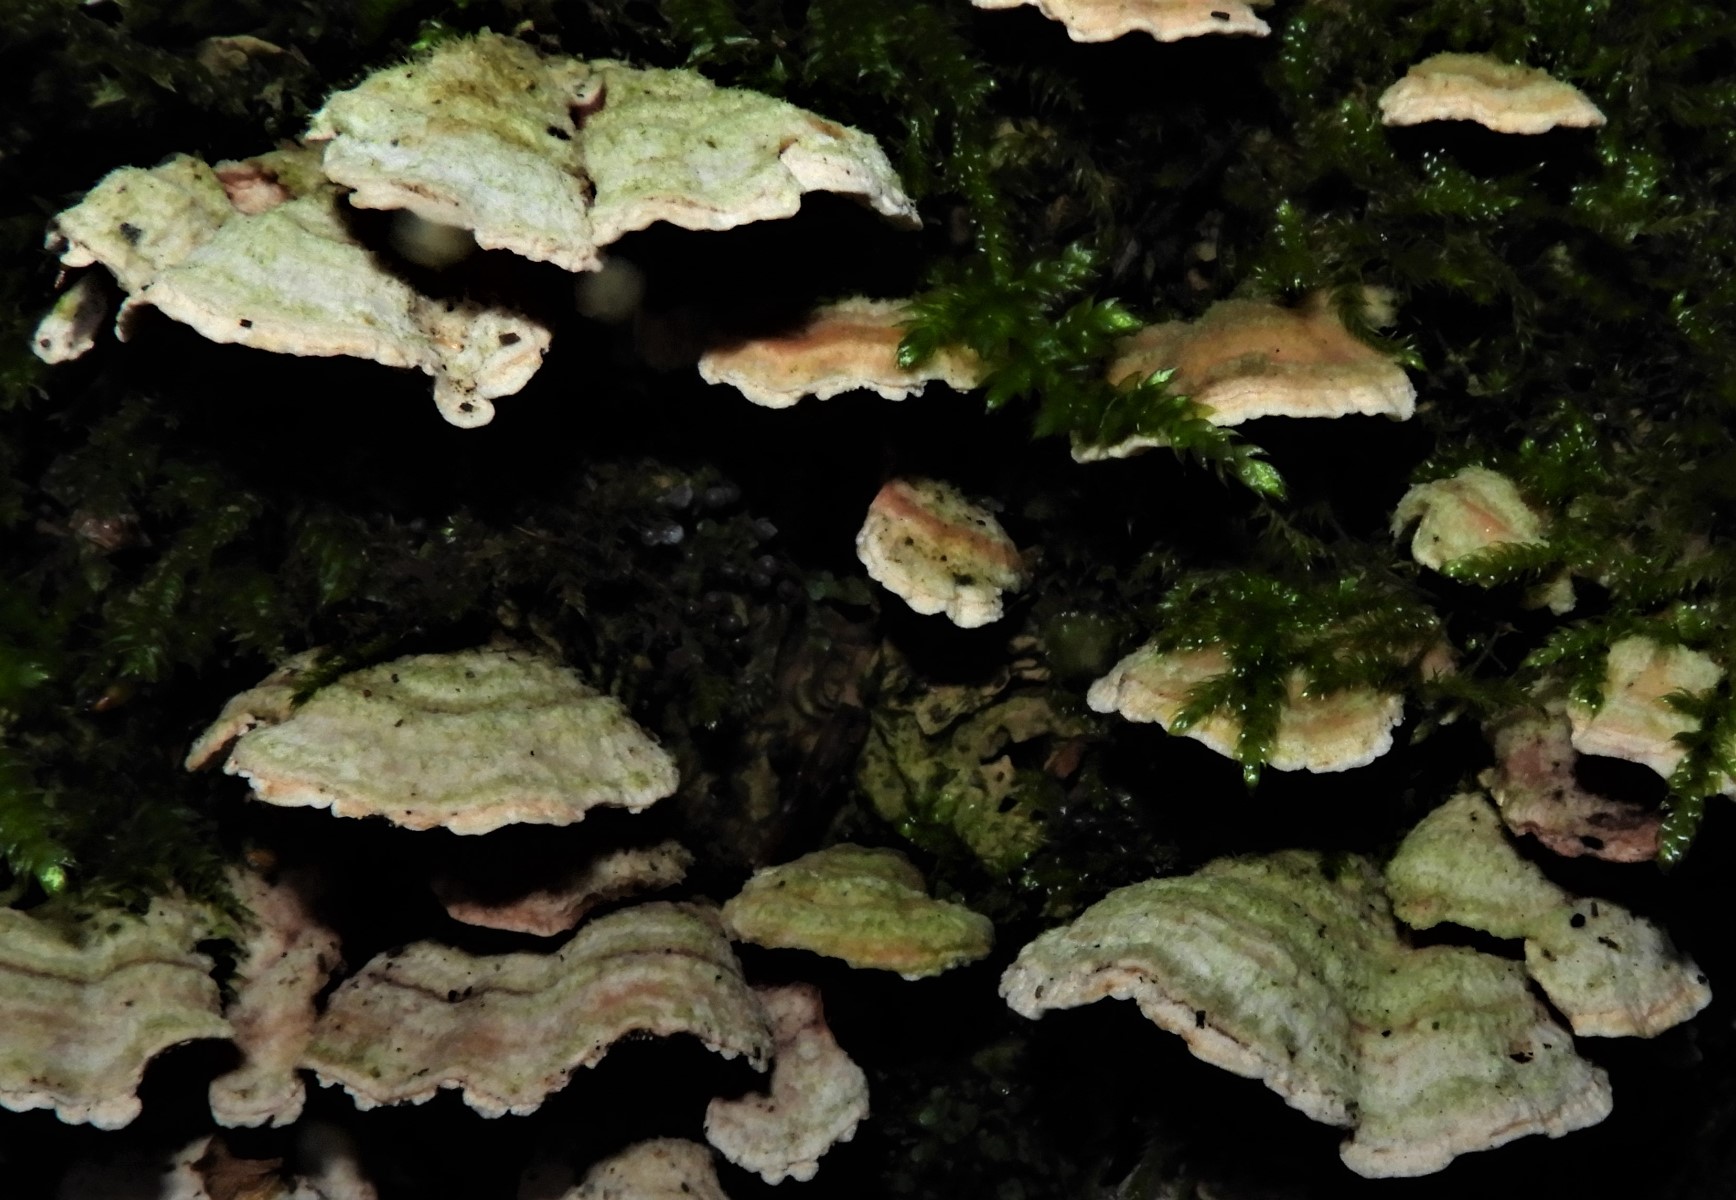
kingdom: Fungi
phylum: Basidiomycota
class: Agaricomycetes
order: Polyporales
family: Steccherinaceae
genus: Steccherinum
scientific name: Steccherinum ochraceum
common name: almindelig skønpig
